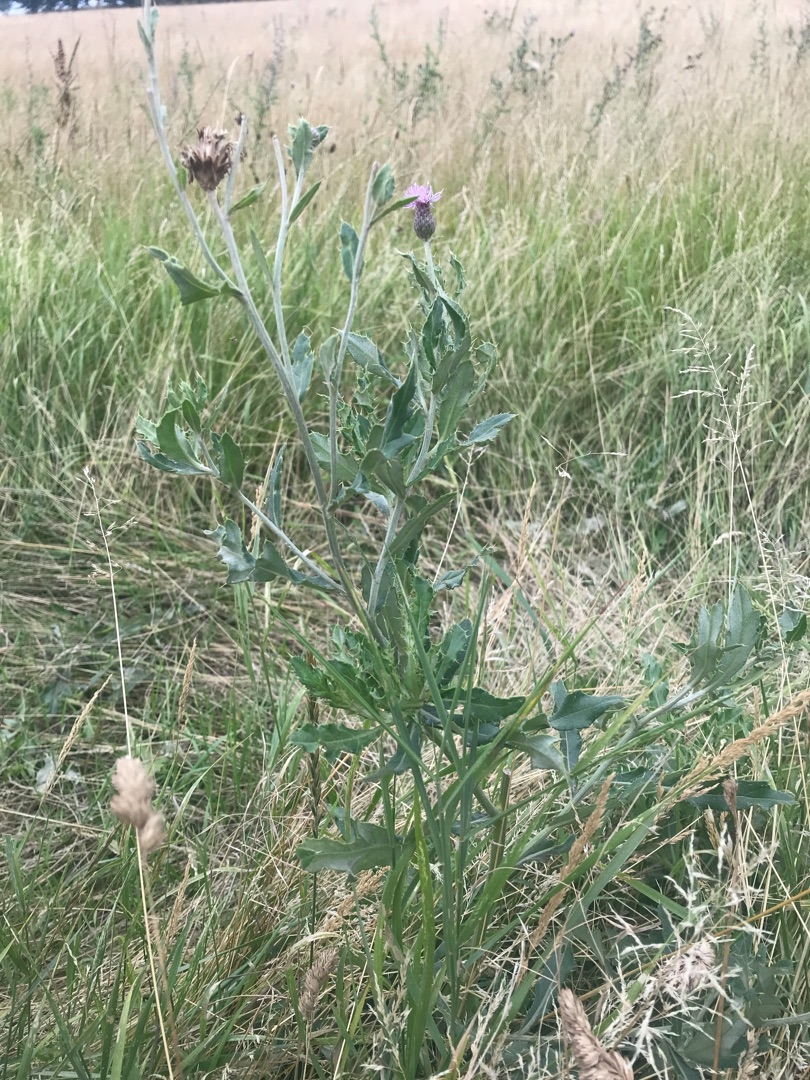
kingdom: Plantae
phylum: Tracheophyta
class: Magnoliopsida
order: Asterales
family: Asteraceae
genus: Cirsium
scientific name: Cirsium arvense
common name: Ager-tidsel
